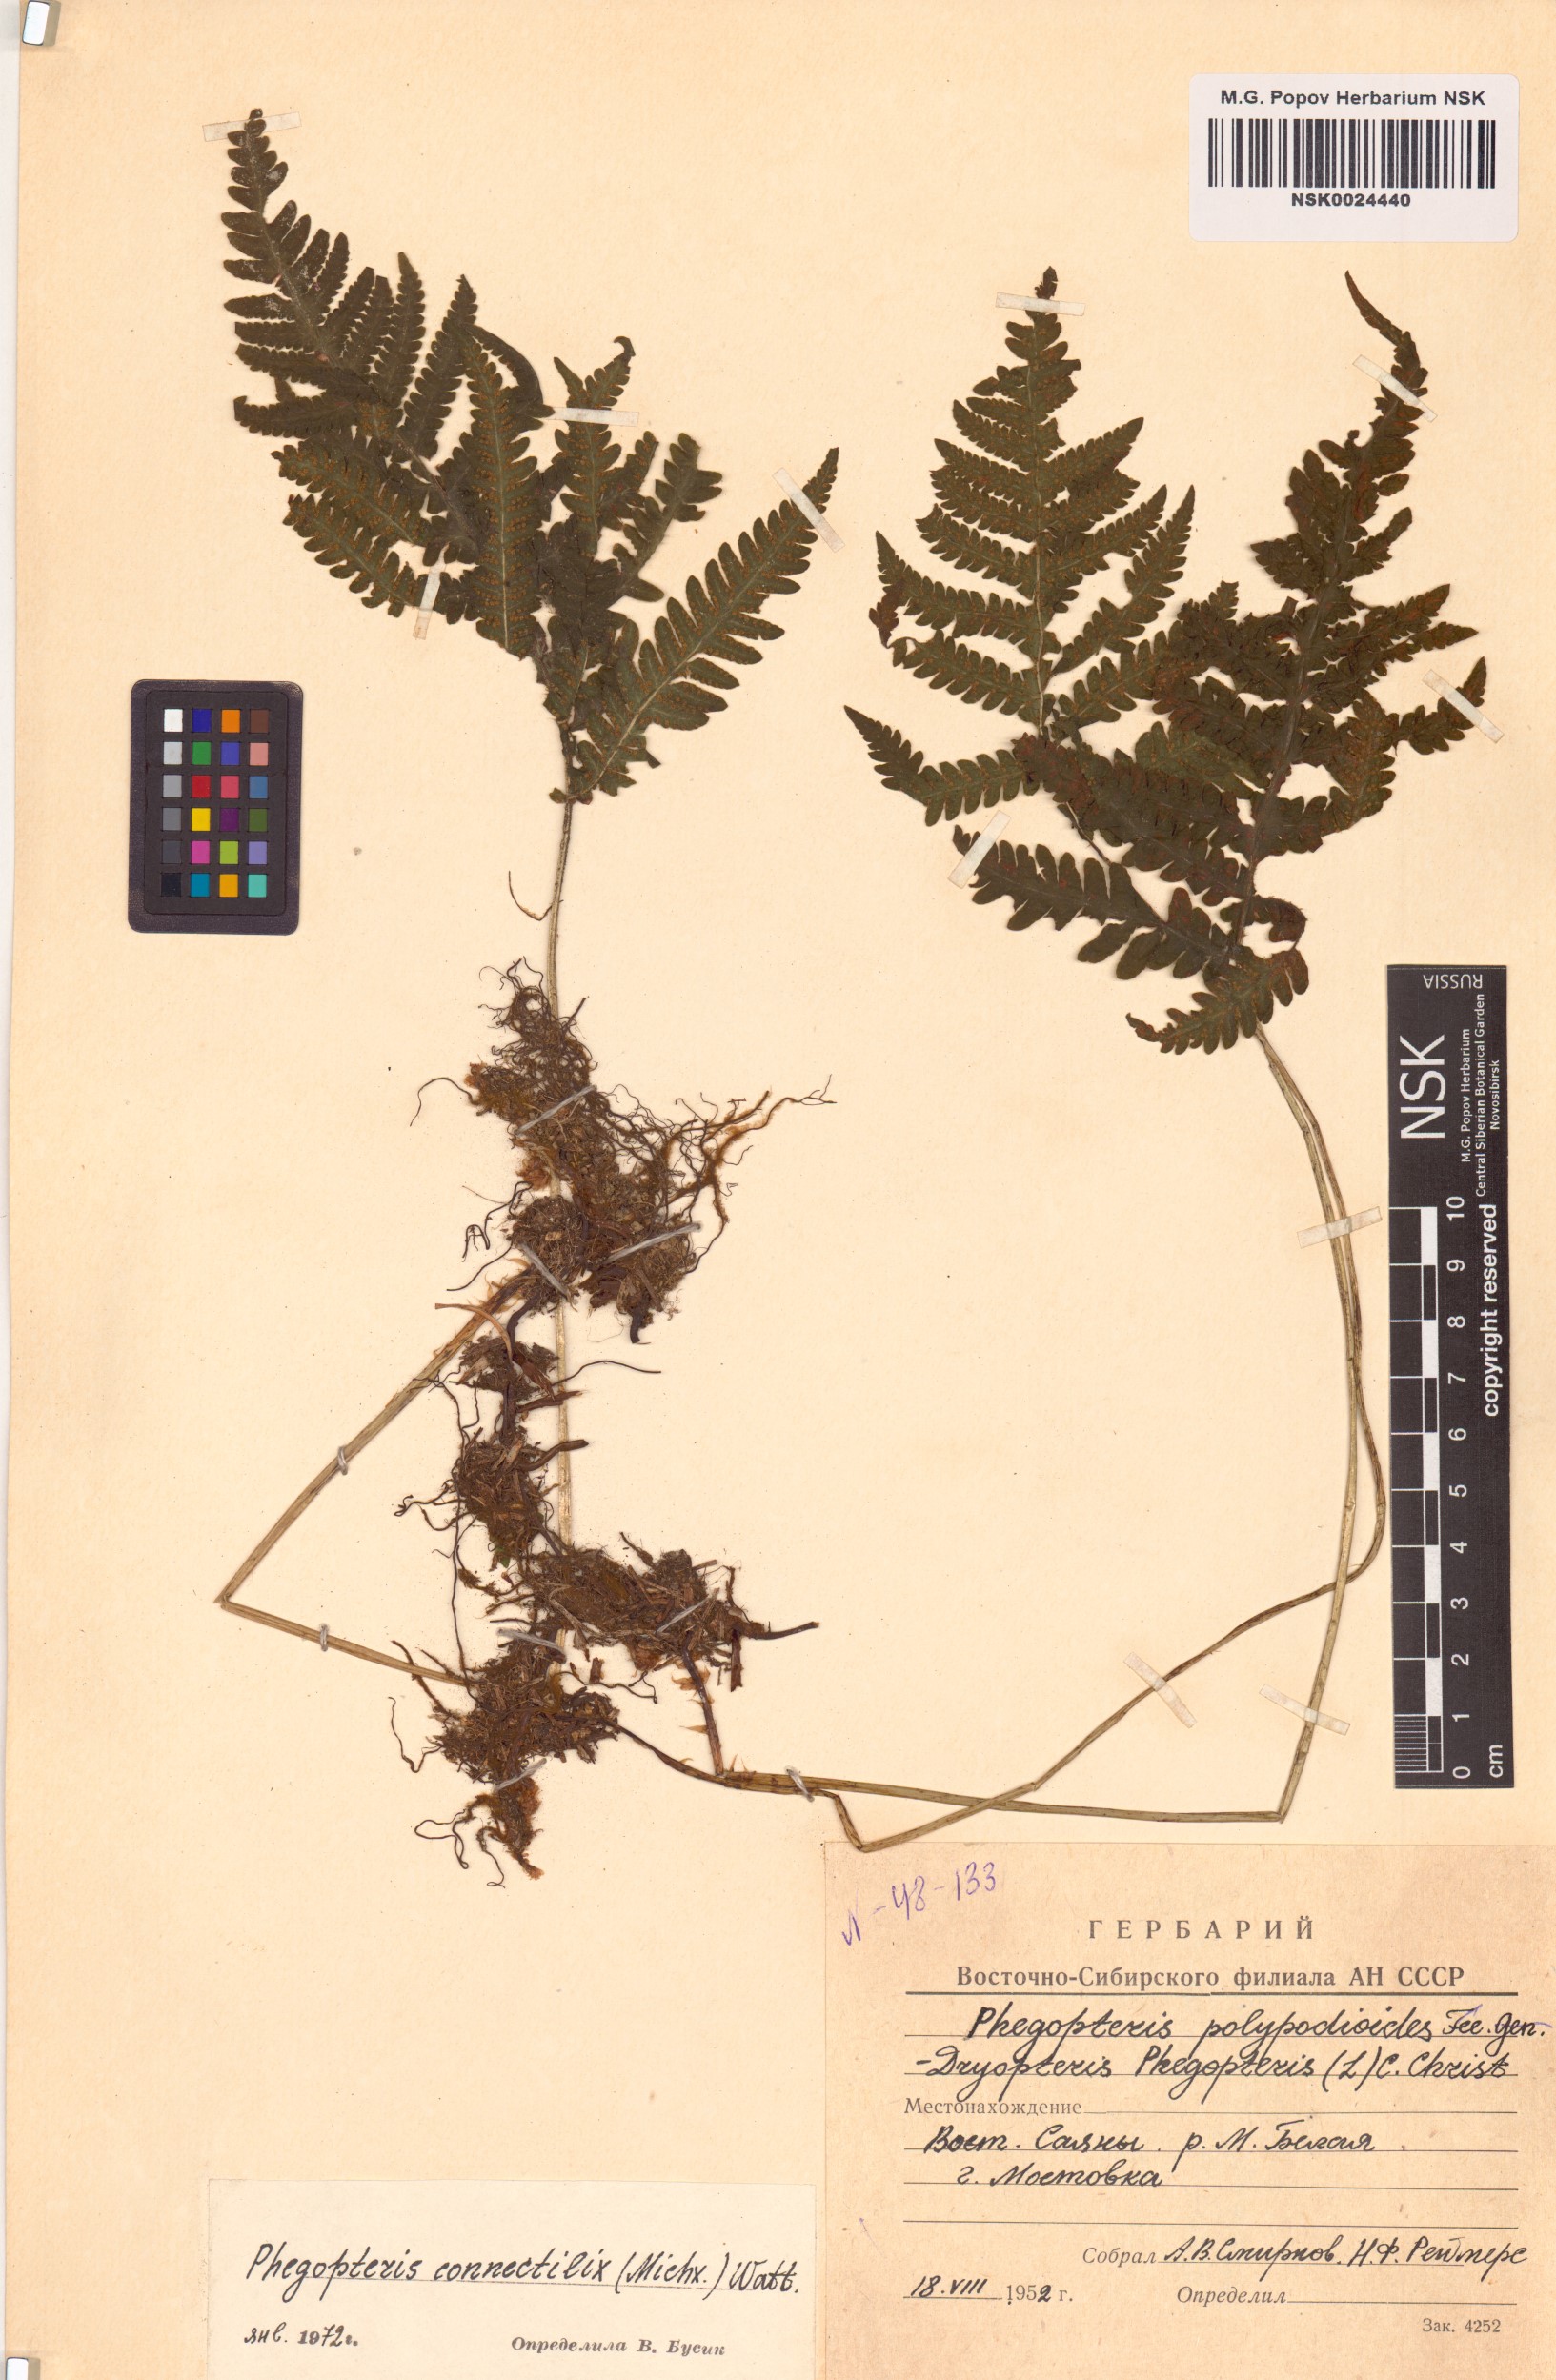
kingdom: Plantae
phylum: Tracheophyta
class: Polypodiopsida
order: Polypodiales
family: Thelypteridaceae
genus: Phegopteris
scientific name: Phegopteris connectilis
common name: Beech fern
